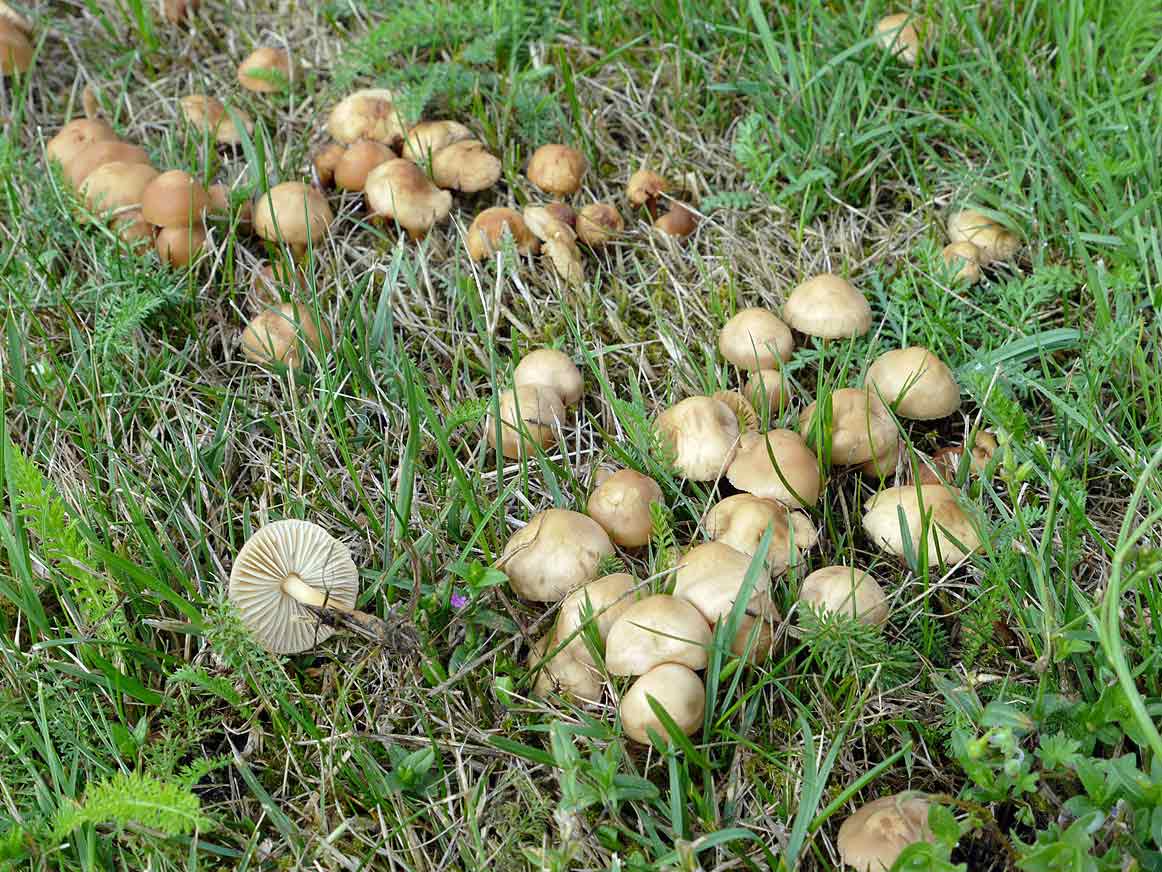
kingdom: Fungi
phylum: Basidiomycota
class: Agaricomycetes
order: Agaricales
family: Marasmiaceae
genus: Marasmius
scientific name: Marasmius oreades
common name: elledans-bruskhat
